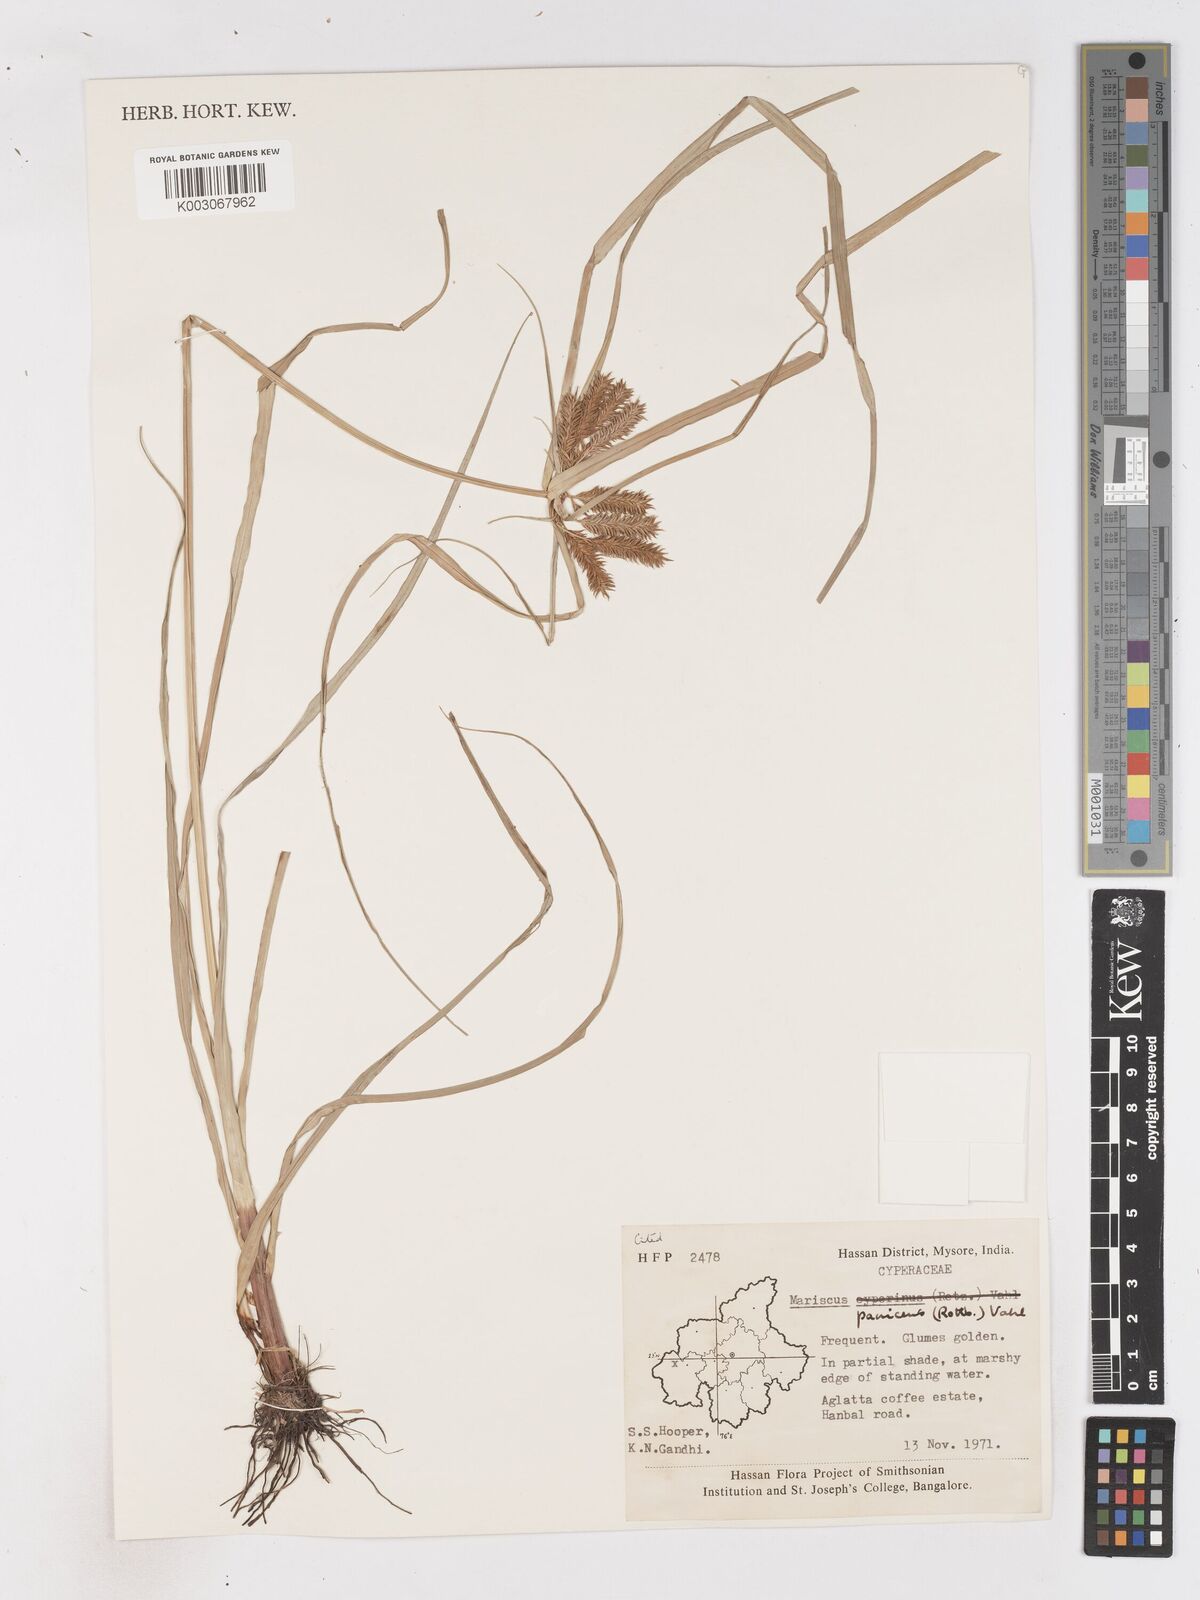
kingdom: Plantae
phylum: Tracheophyta
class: Liliopsida
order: Poales
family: Cyperaceae
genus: Cyperus
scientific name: Cyperus paniceus
